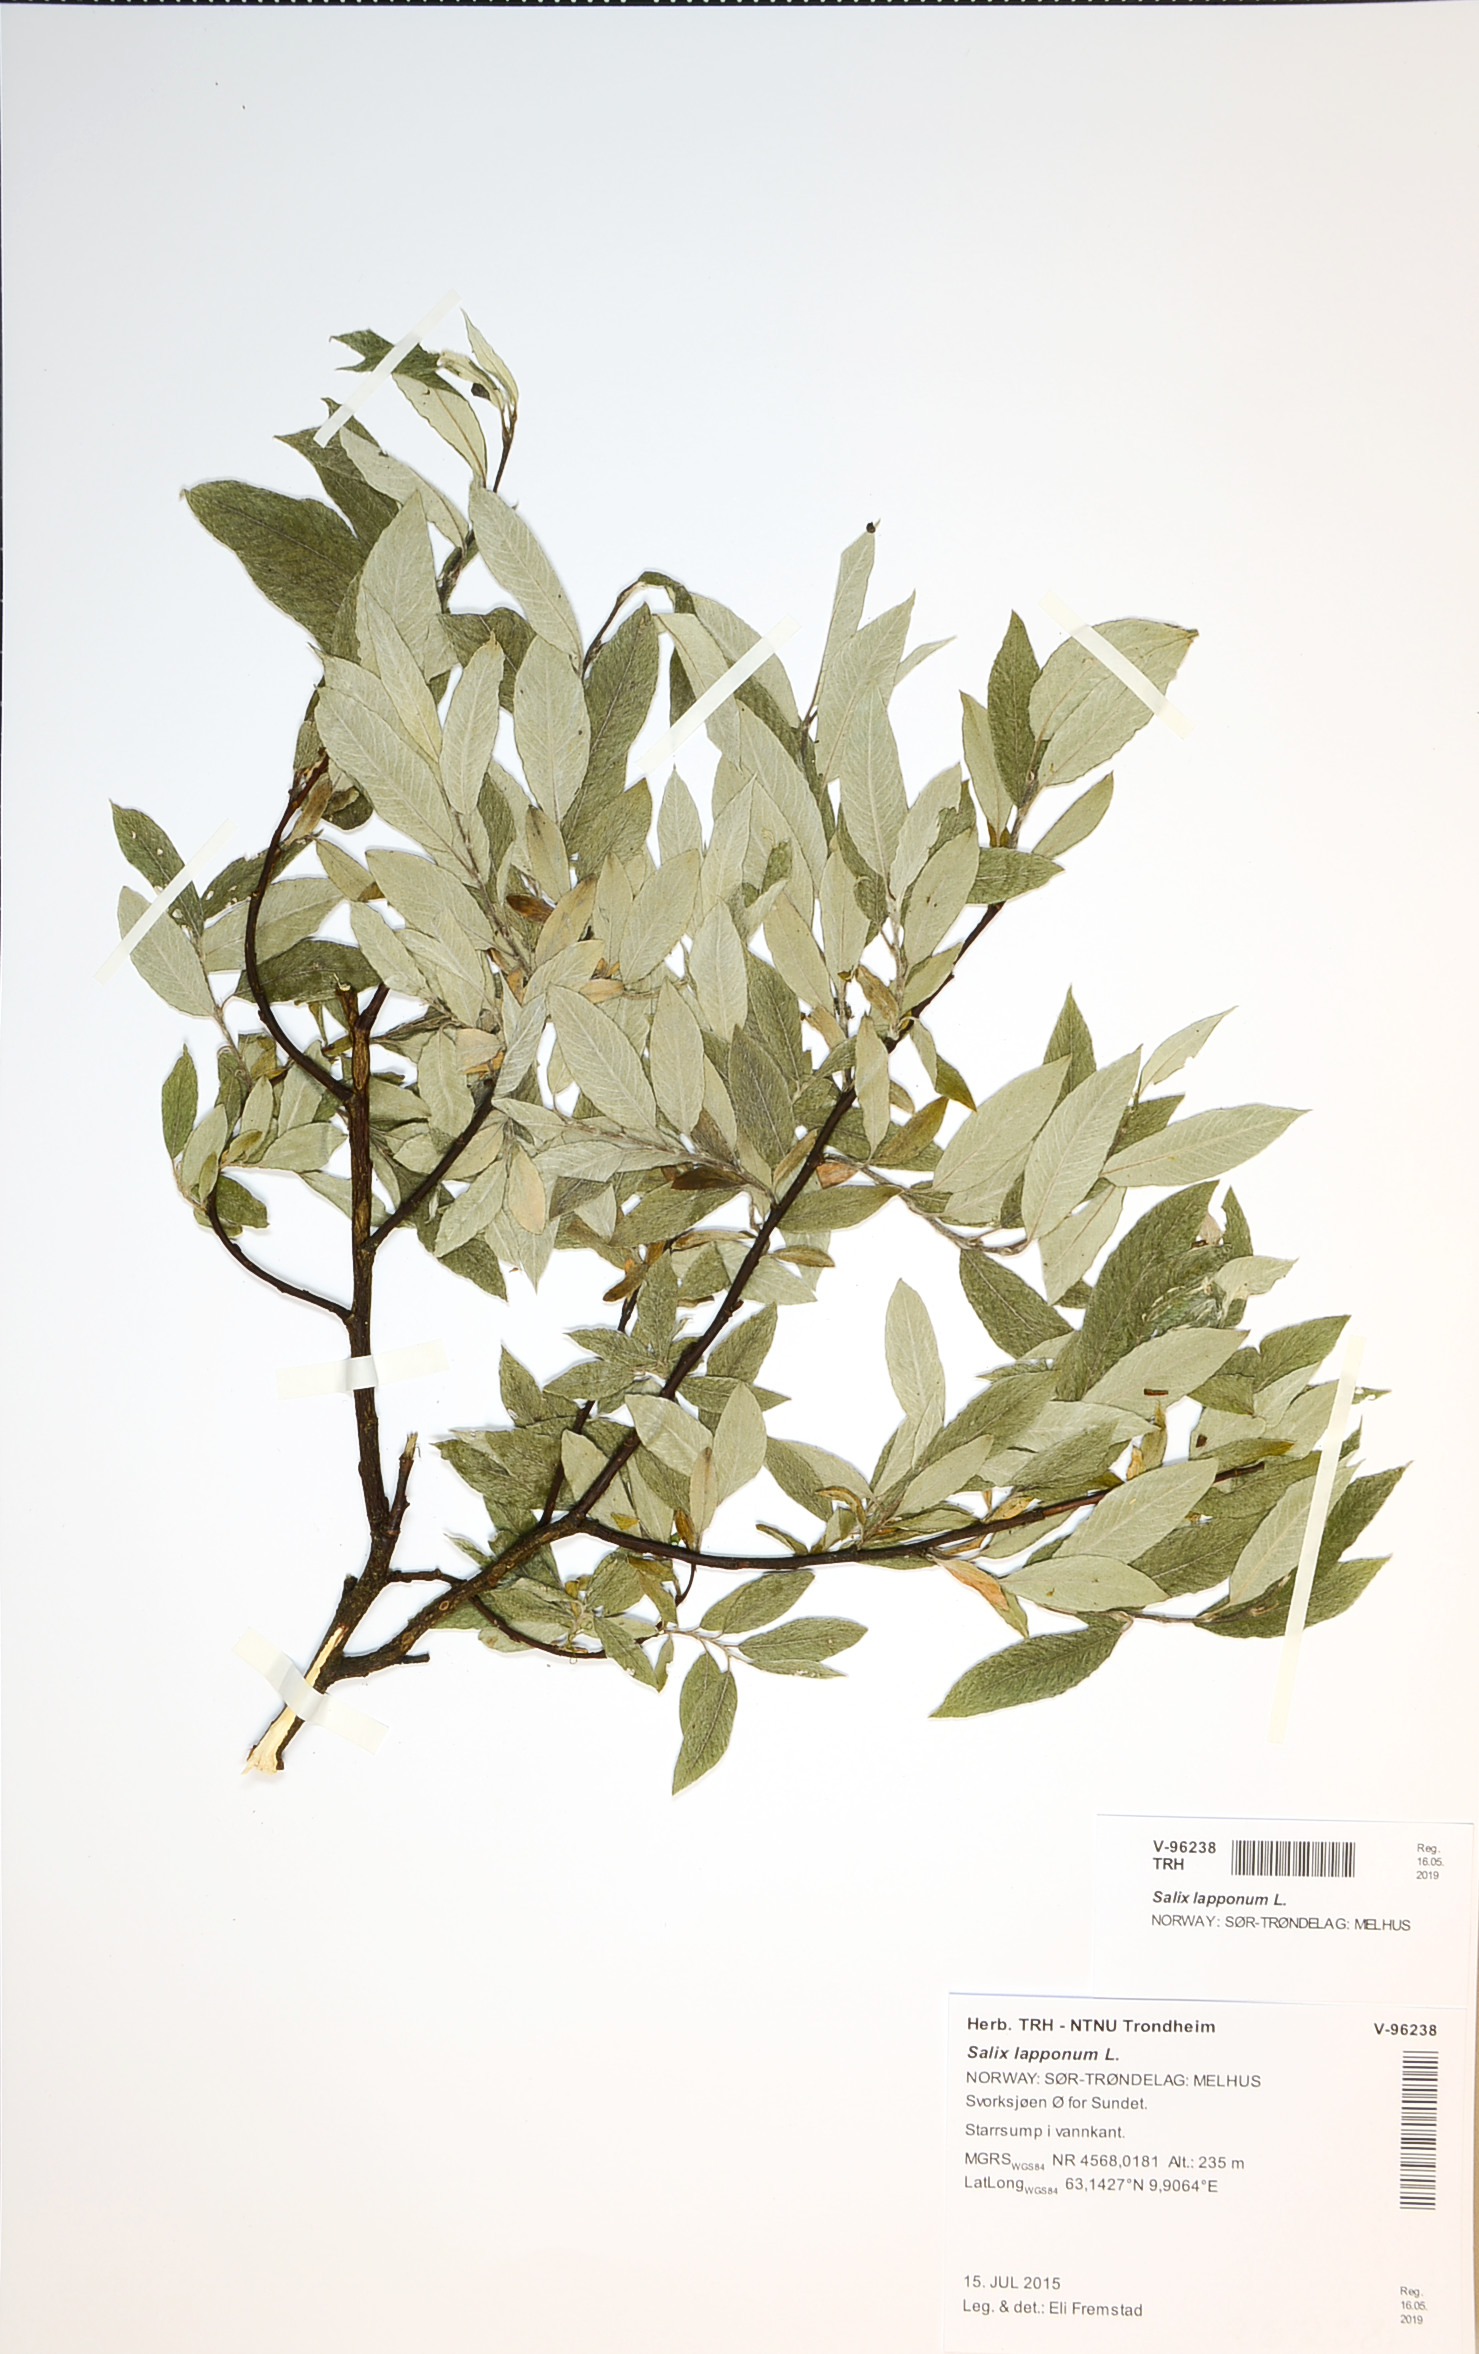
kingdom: Plantae
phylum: Tracheophyta
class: Magnoliopsida
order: Malpighiales
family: Salicaceae
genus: Salix
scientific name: Salix lapponum
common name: Downy willow
